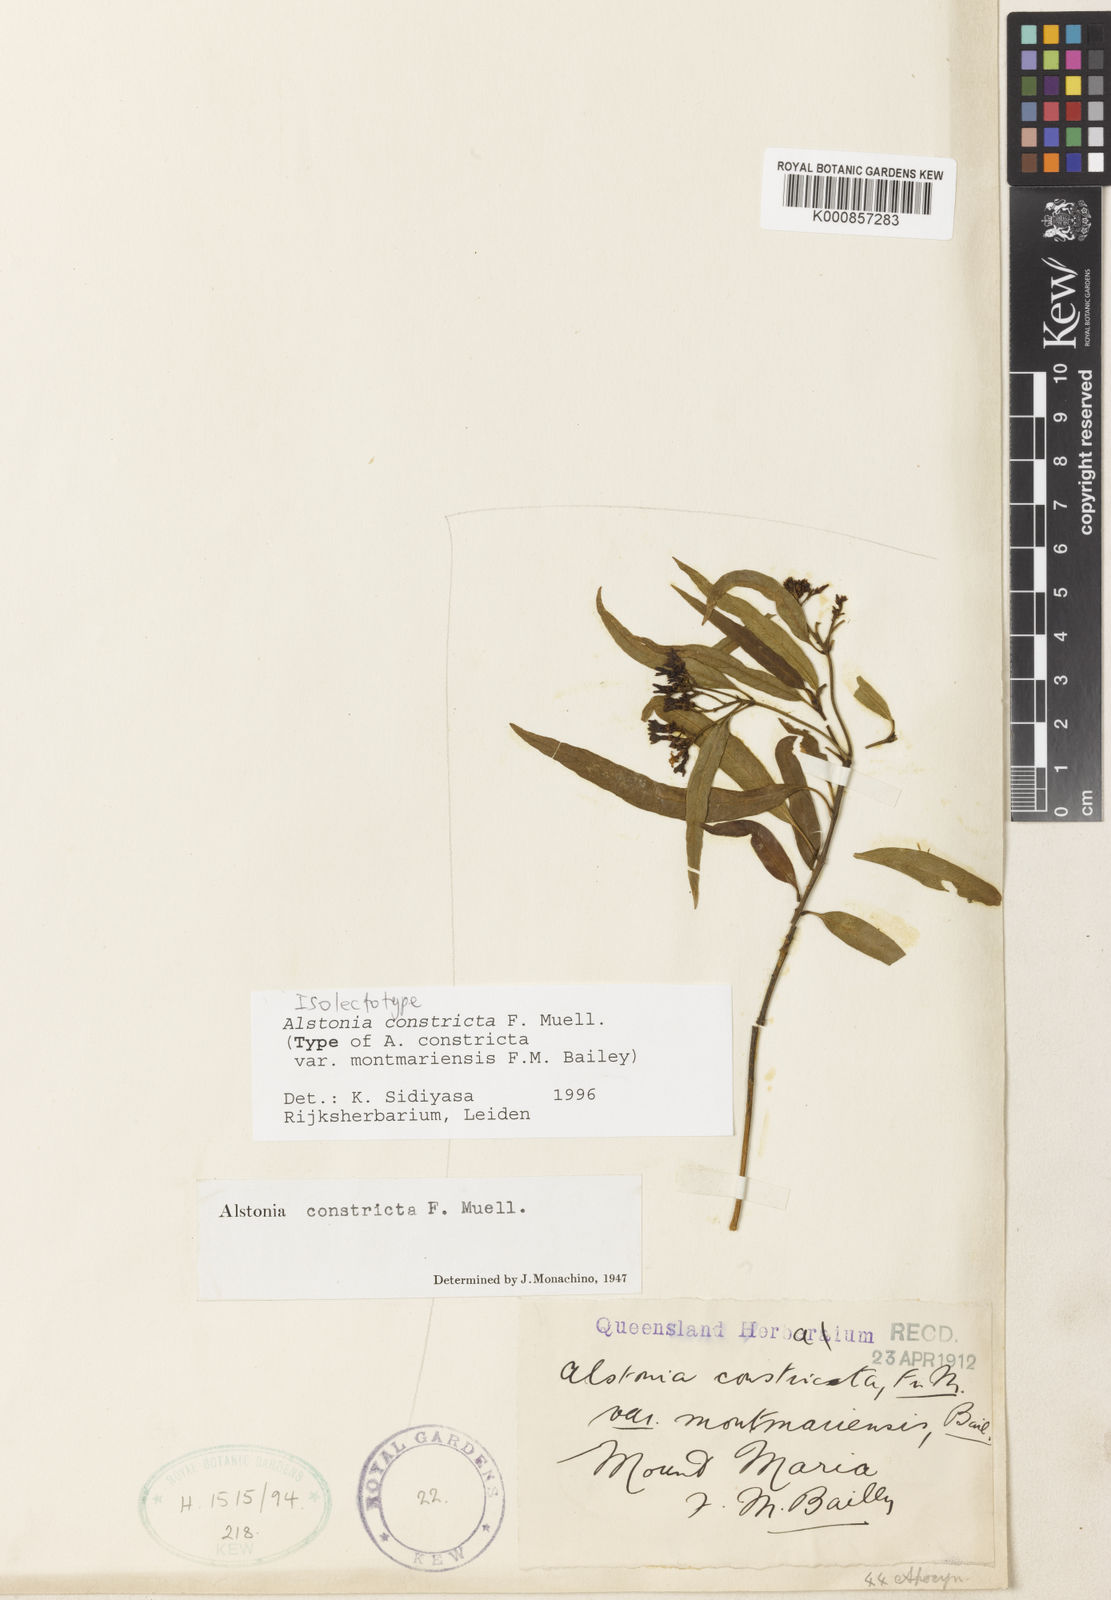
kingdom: Plantae
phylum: Tracheophyta
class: Magnoliopsida
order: Gentianales
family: Apocynaceae
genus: Alstonia
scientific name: Alstonia mollis
